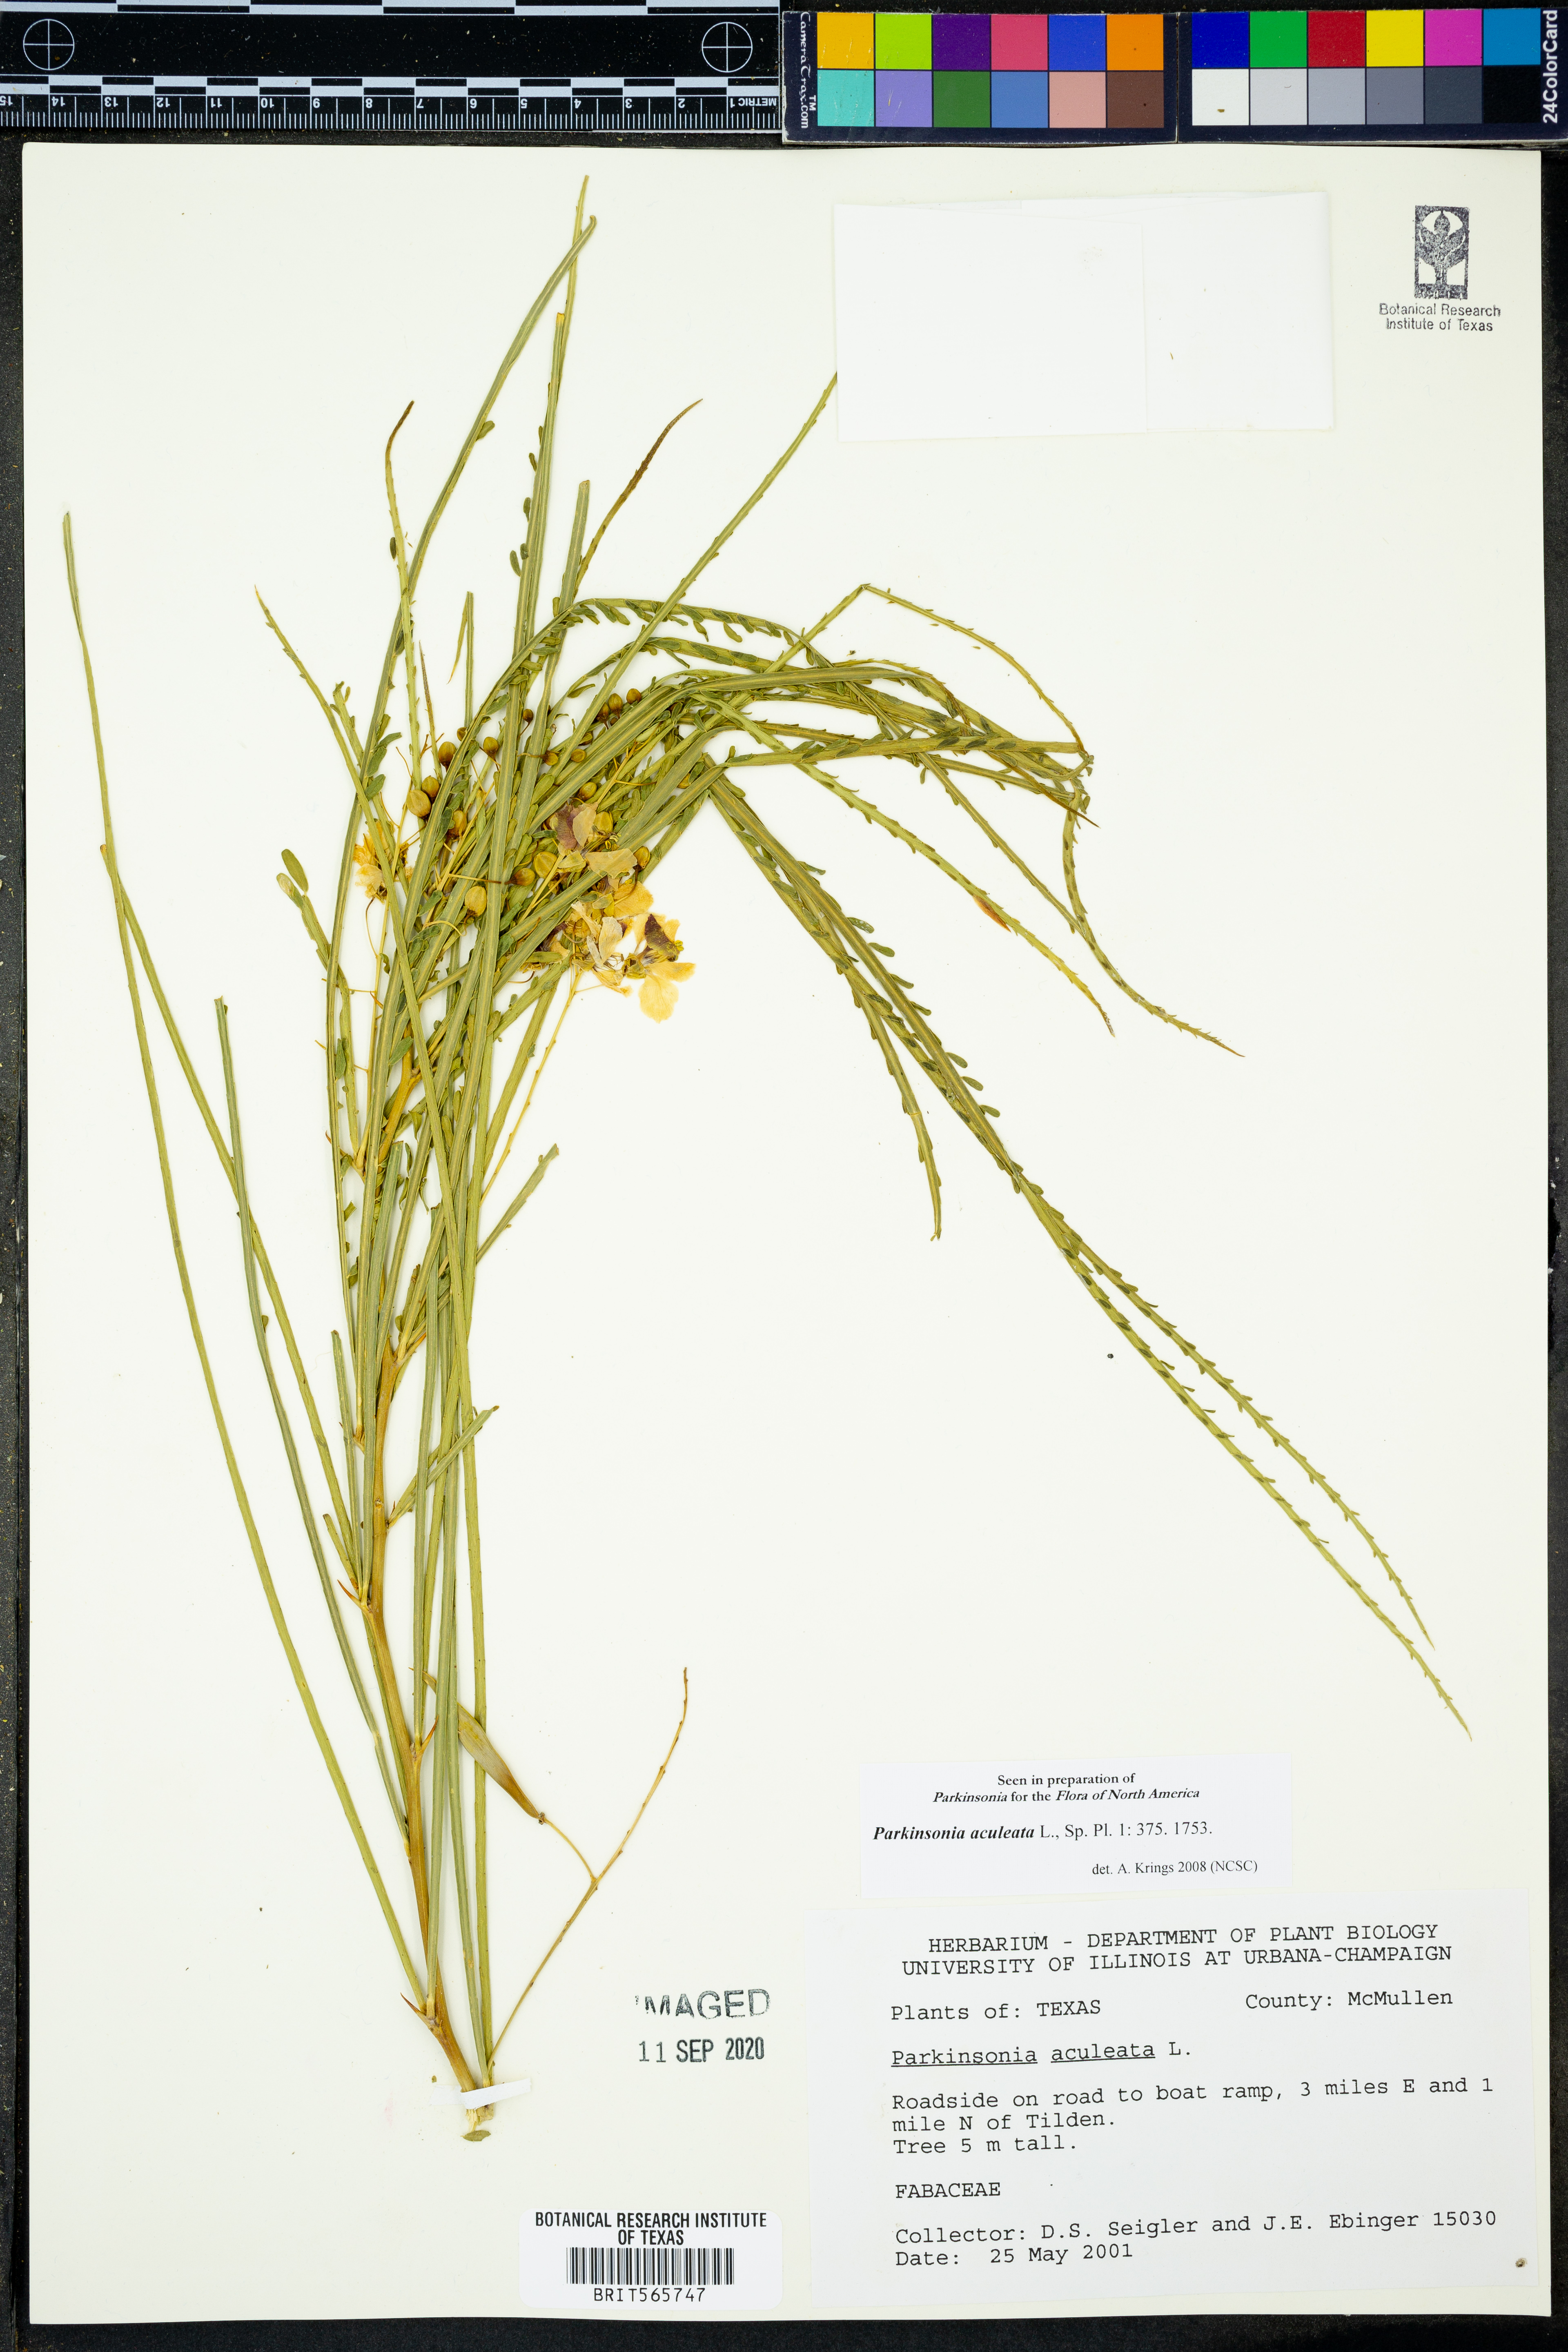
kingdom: Plantae
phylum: Tracheophyta
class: Magnoliopsida
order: Fabales
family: Fabaceae
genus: Parkinsonia
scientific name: Parkinsonia aculeata
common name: Jerusalem thorn
